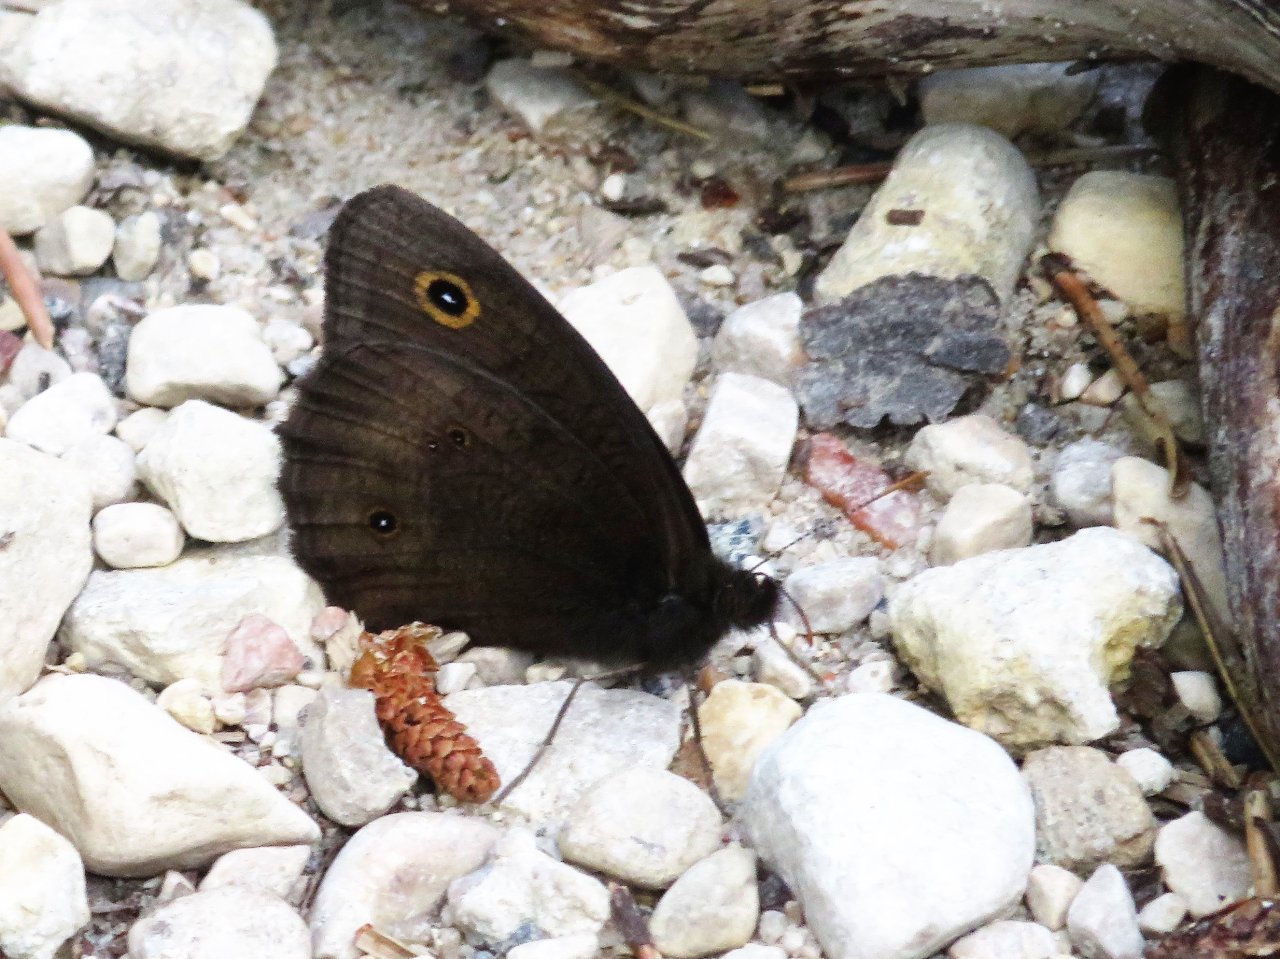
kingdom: Animalia
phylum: Arthropoda
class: Insecta
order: Lepidoptera
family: Nymphalidae
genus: Cercyonis
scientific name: Cercyonis pegala
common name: Common Wood-Nymph
